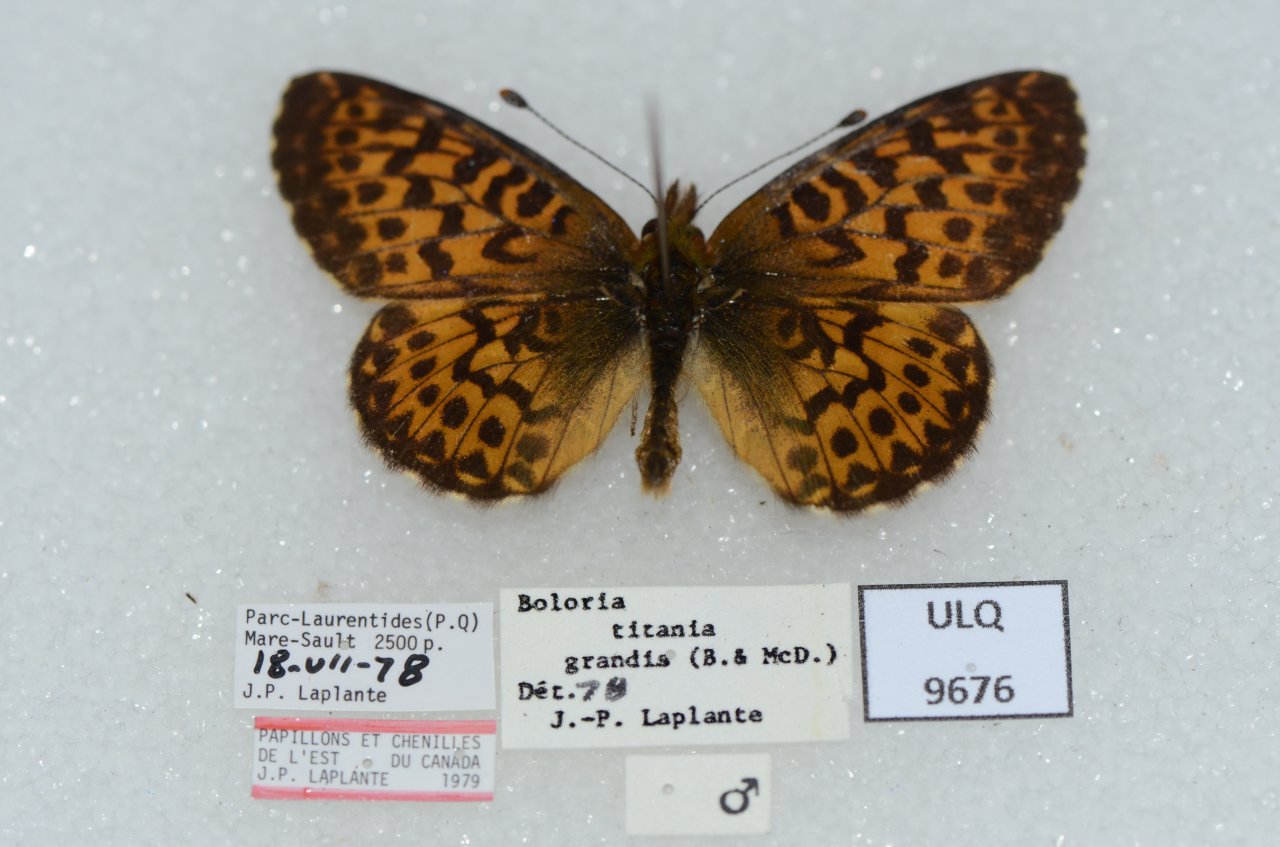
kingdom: Animalia
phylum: Arthropoda
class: Insecta
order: Lepidoptera
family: Nymphalidae
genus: Boloria
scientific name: Boloria chariclea
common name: Arctic Fritillary
